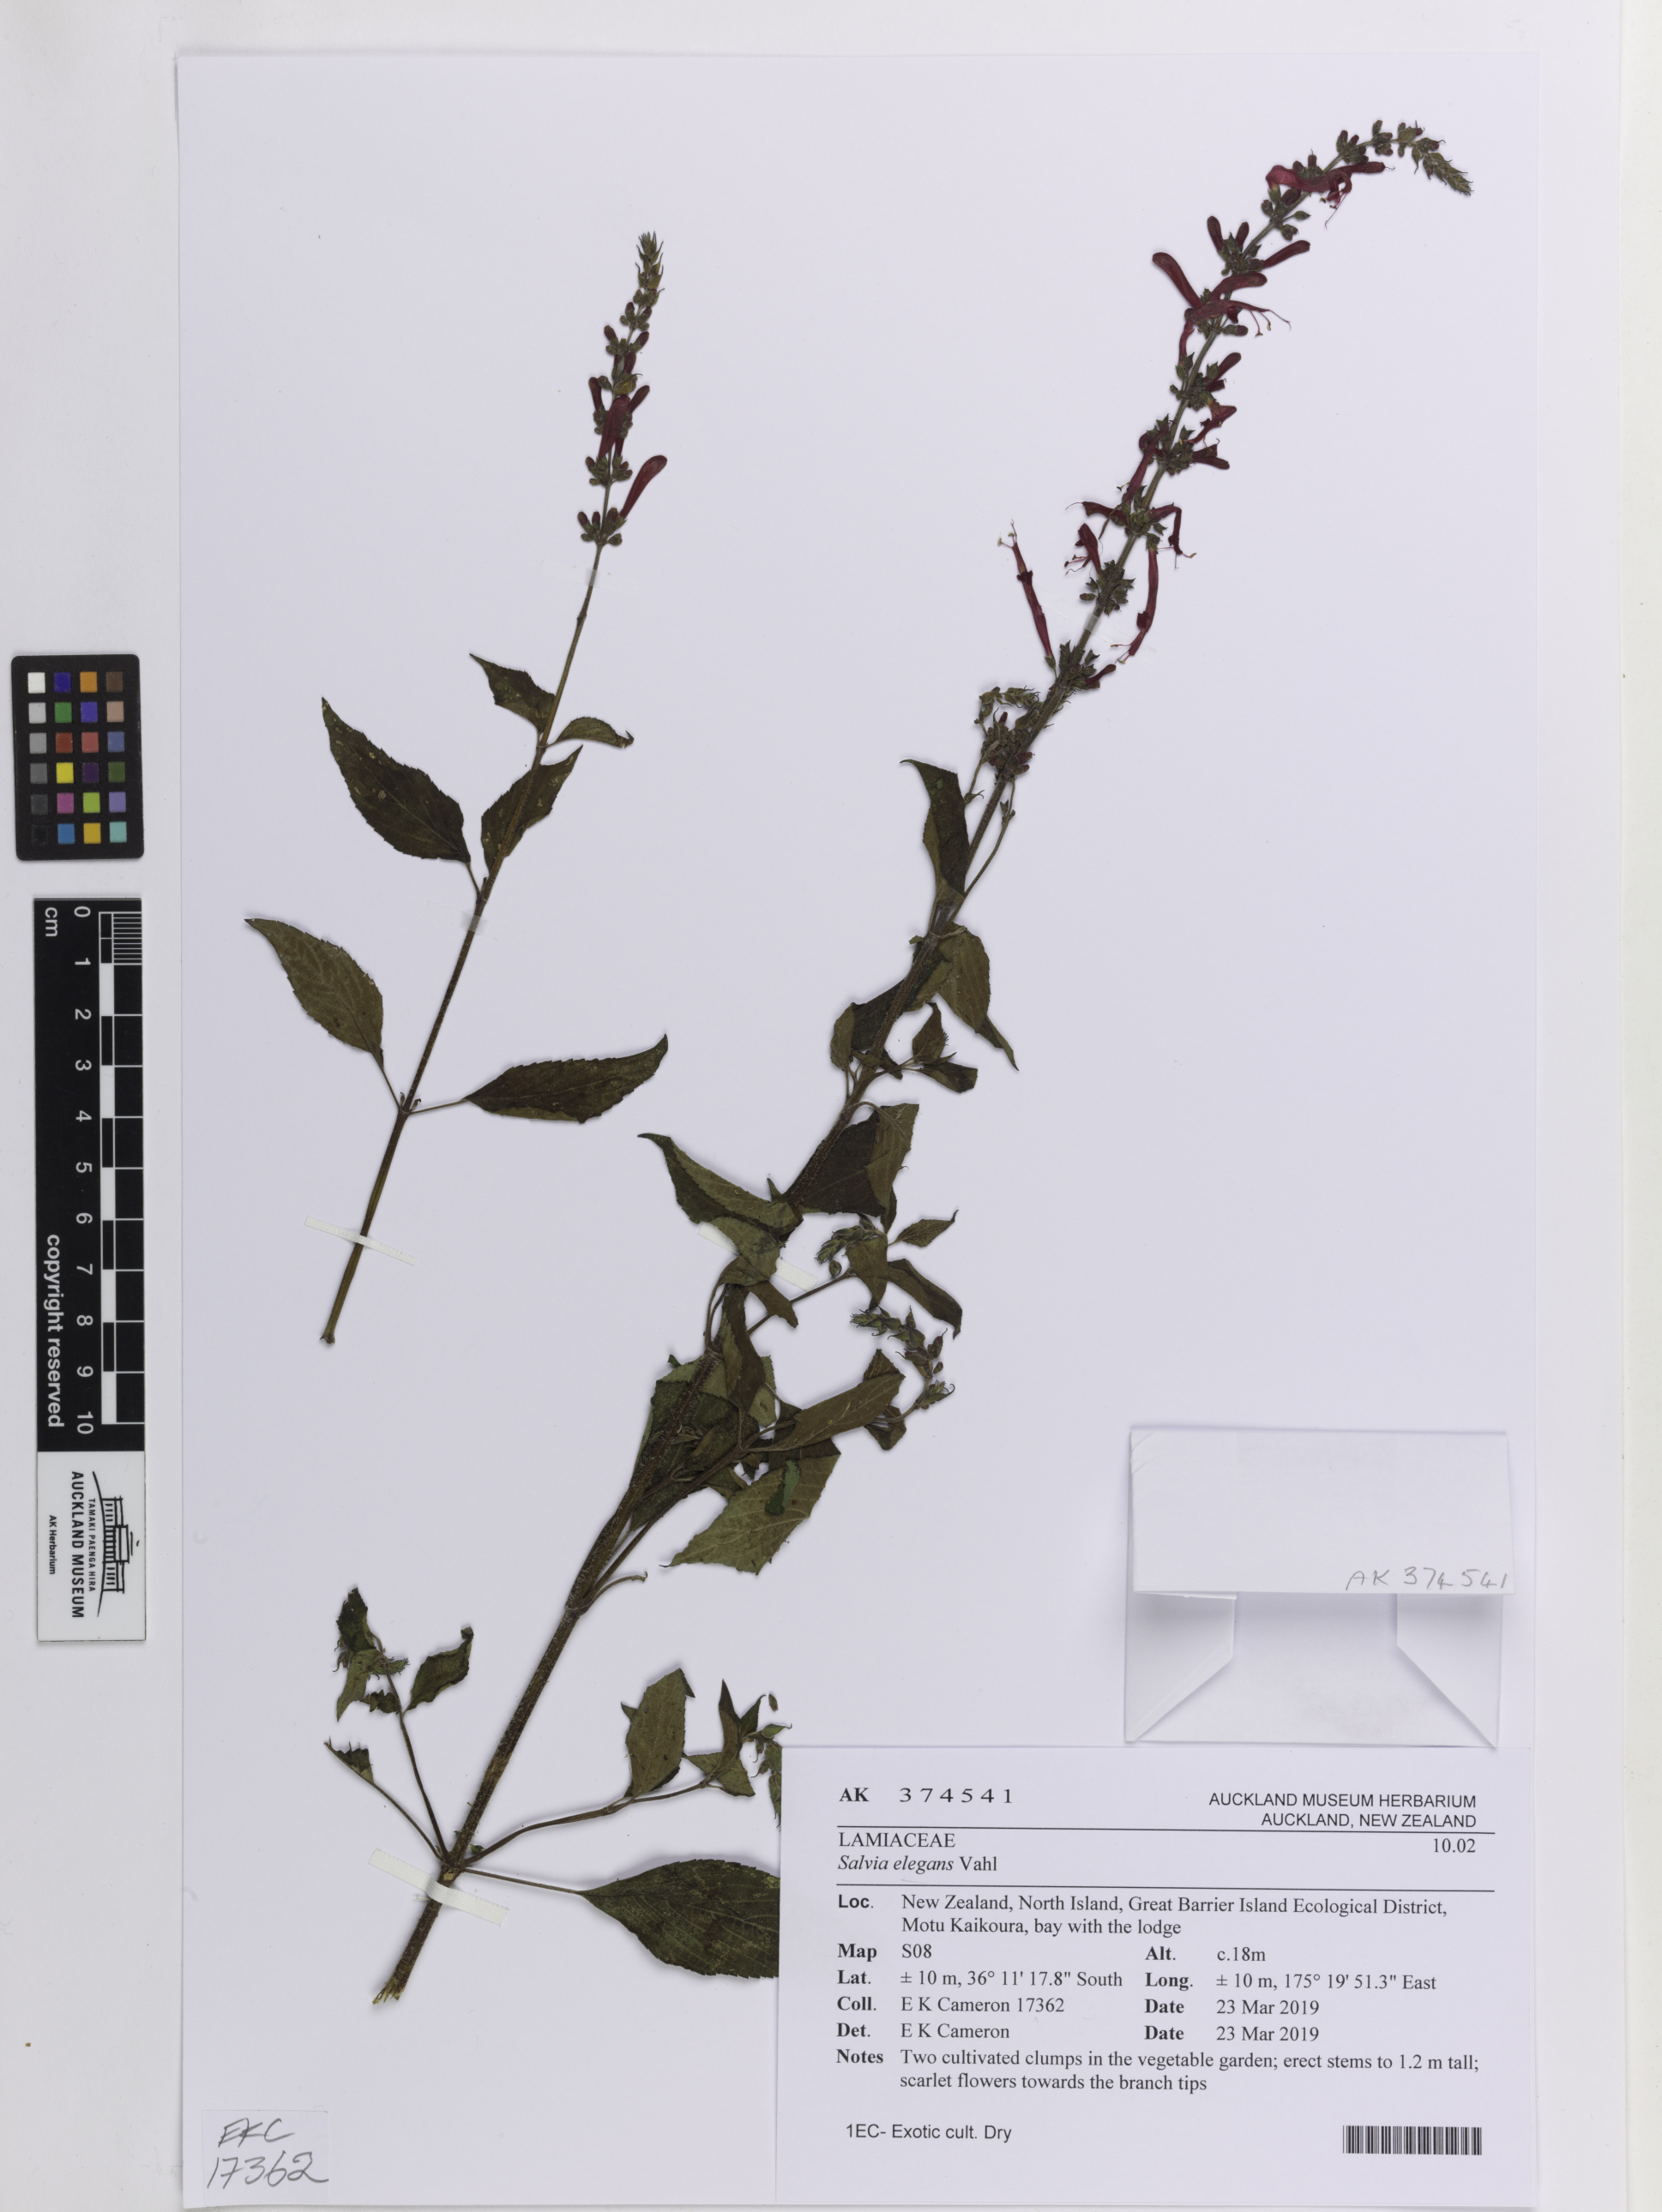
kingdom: Plantae
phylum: Tracheophyta
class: Magnoliopsida
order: Lamiales
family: Lamiaceae
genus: Salvia
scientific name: Salvia elegans
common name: Pineapple sage
